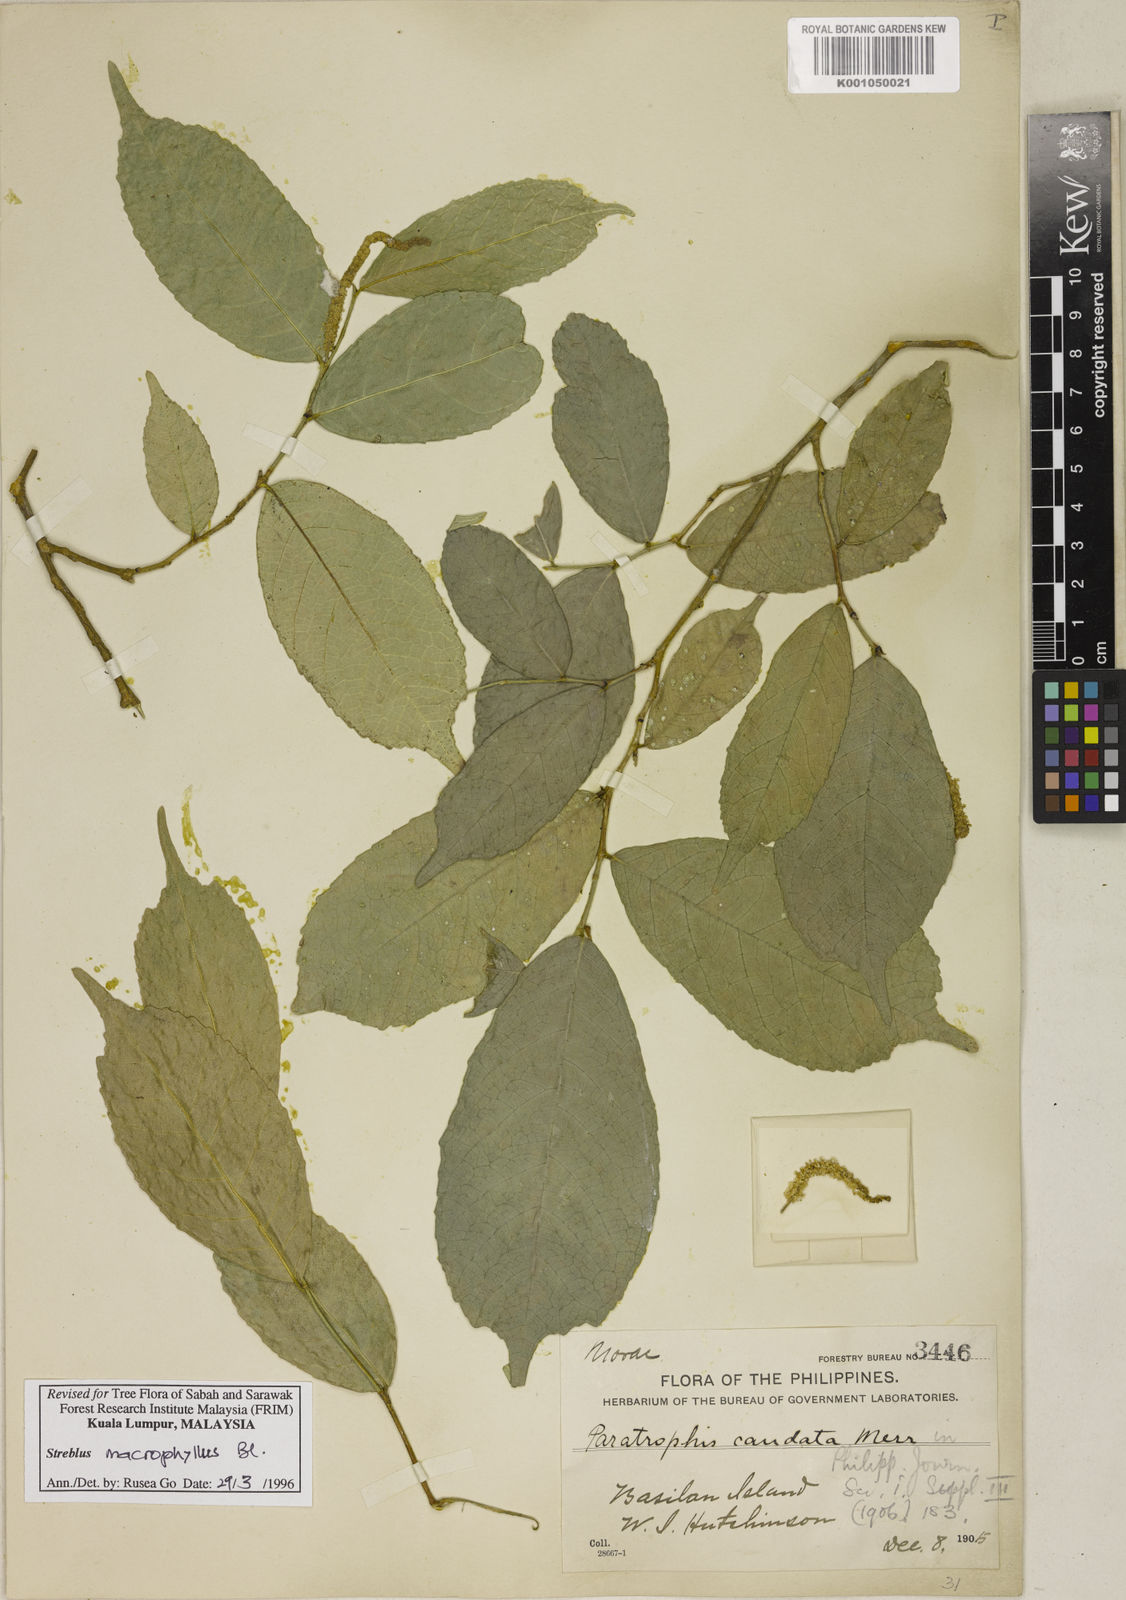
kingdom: Plantae
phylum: Tracheophyta
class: Magnoliopsida
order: Rosales
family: Moraceae
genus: Taxotrophis
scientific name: Taxotrophis macrophylla
